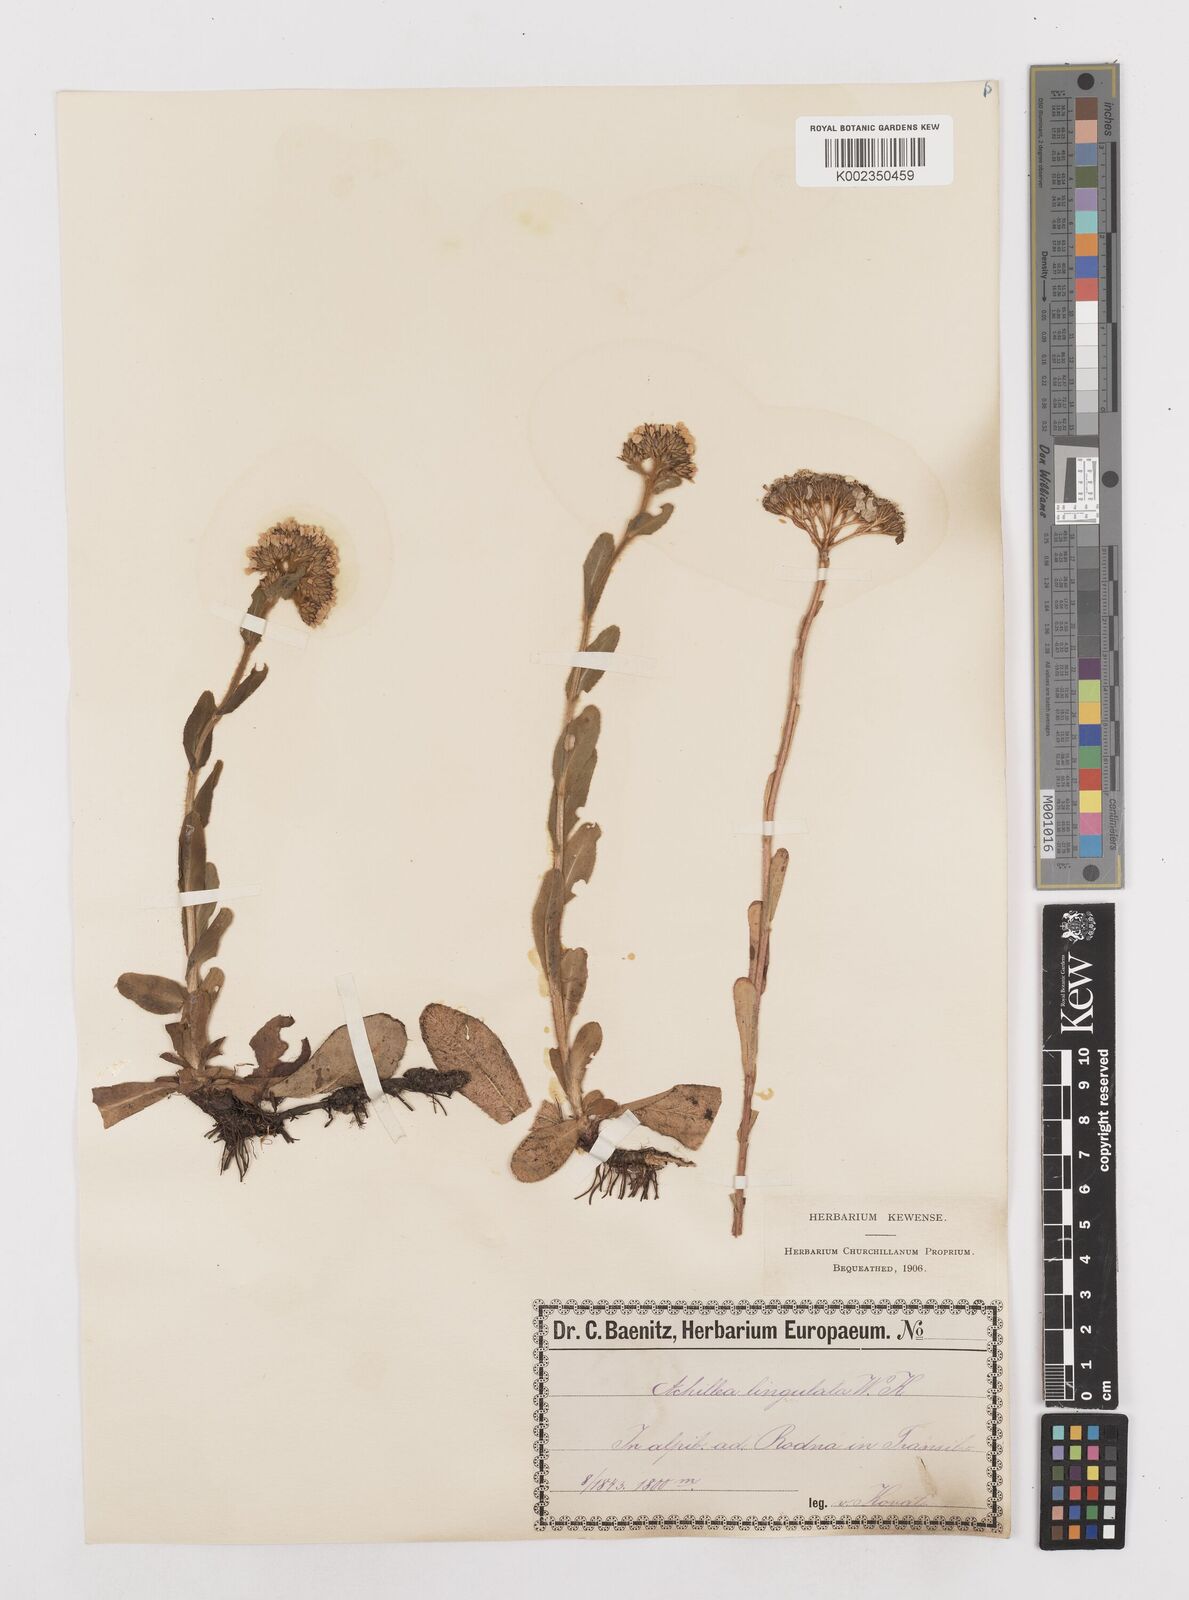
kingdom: Plantae
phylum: Tracheophyta
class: Magnoliopsida
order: Asterales
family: Asteraceae
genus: Achillea
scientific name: Achillea lingulata
